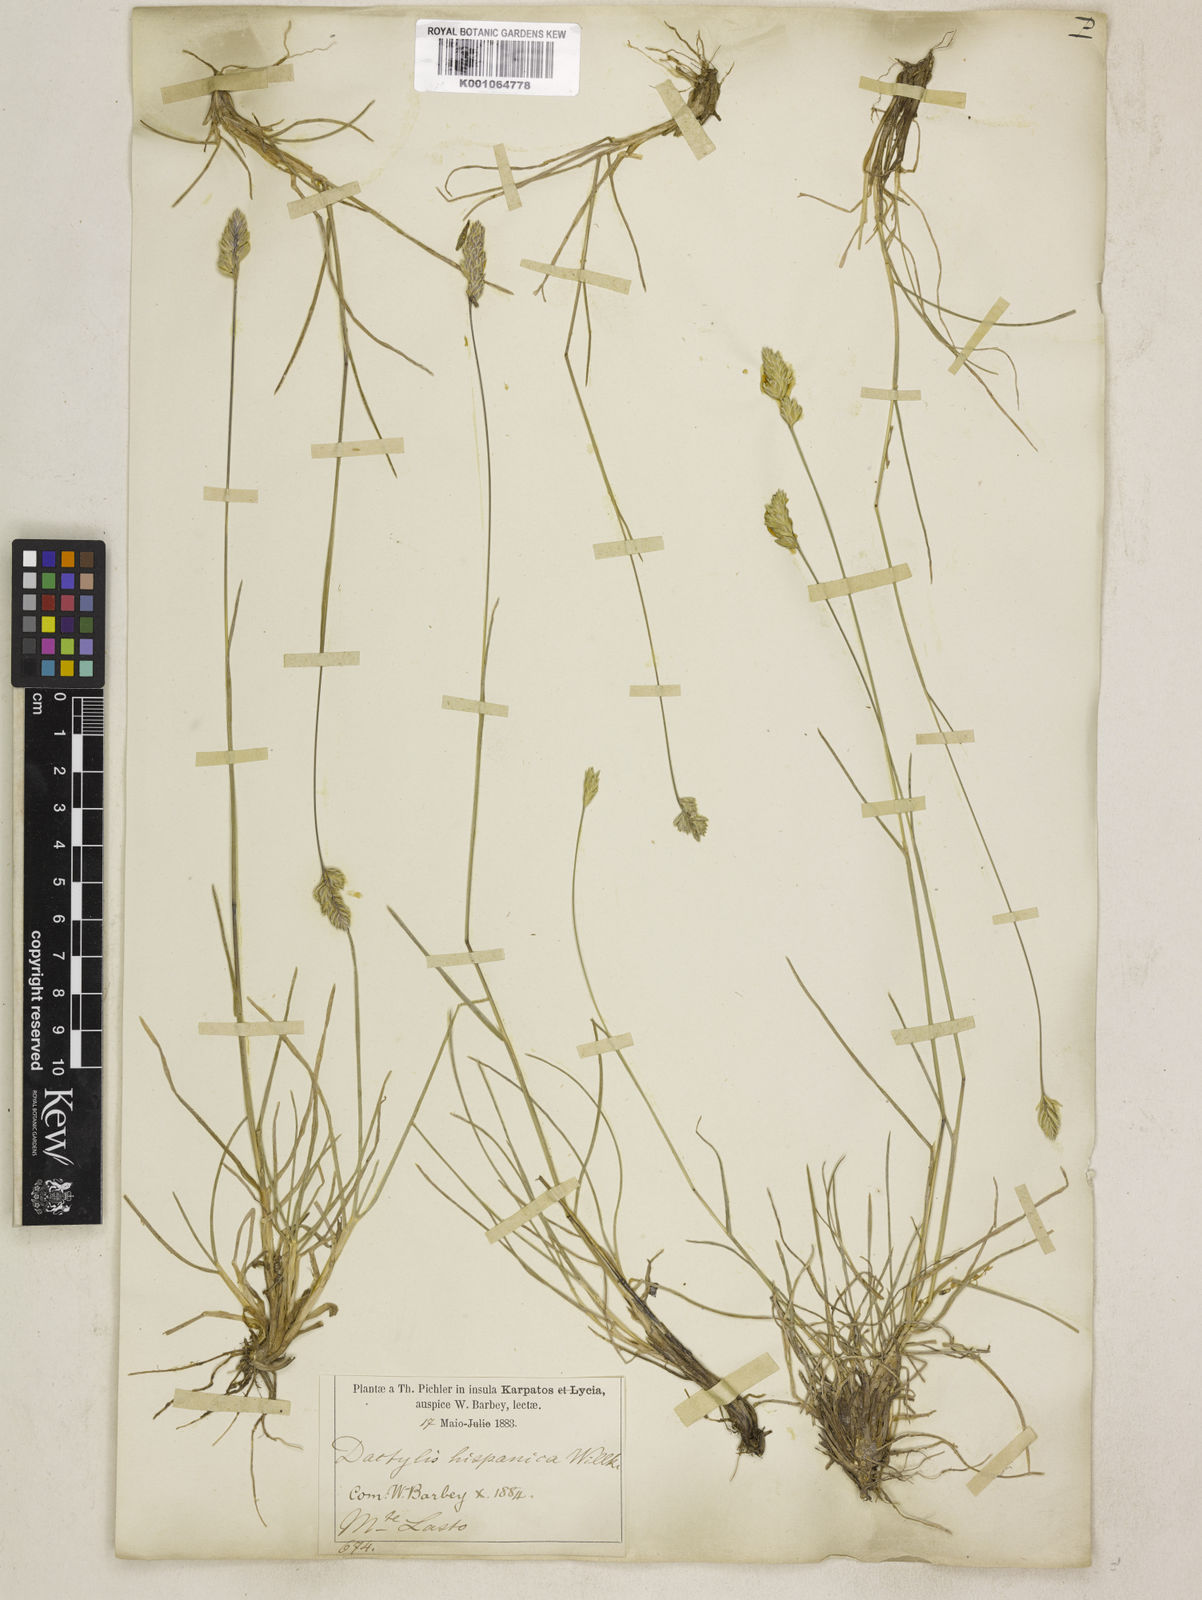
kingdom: Plantae
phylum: Tracheophyta
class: Liliopsida
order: Poales
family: Poaceae
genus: Dactylis
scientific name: Dactylis glomerata
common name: Orchardgrass
